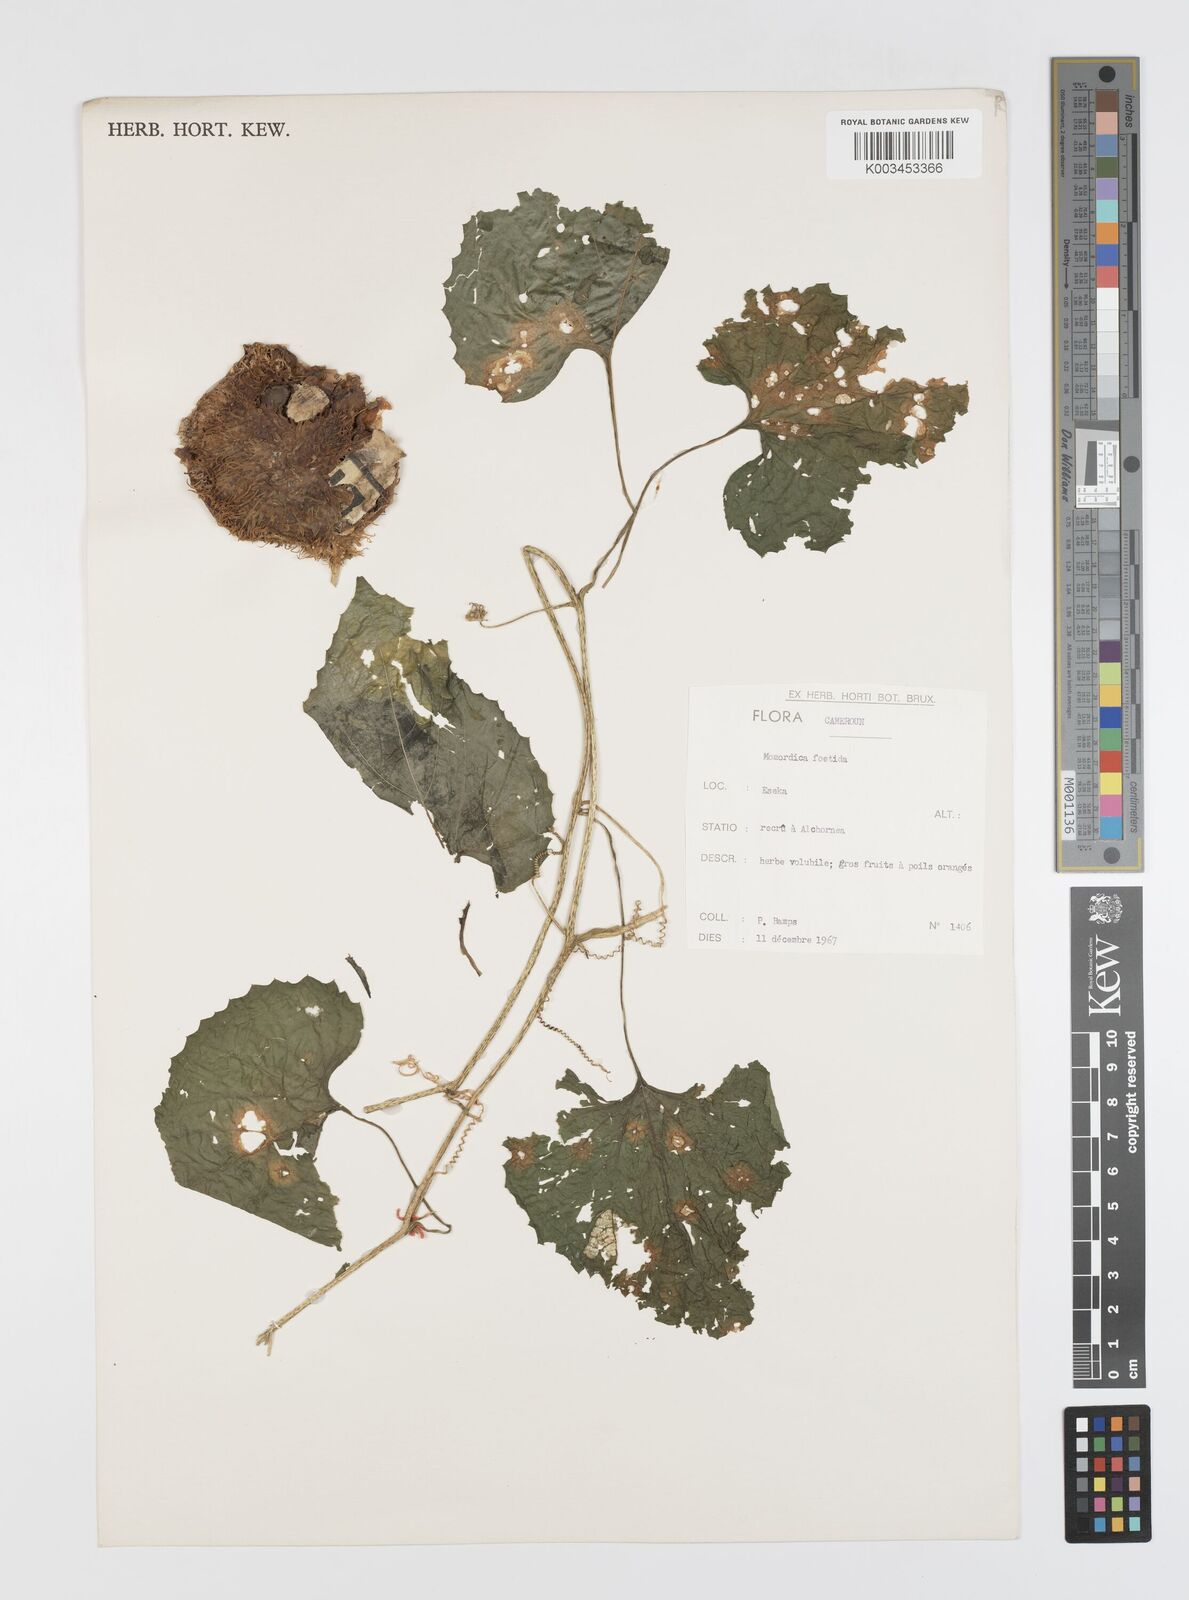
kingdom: Plantae
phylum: Tracheophyta
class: Magnoliopsida
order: Cucurbitales
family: Cucurbitaceae
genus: Momordica
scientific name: Momordica foetida
